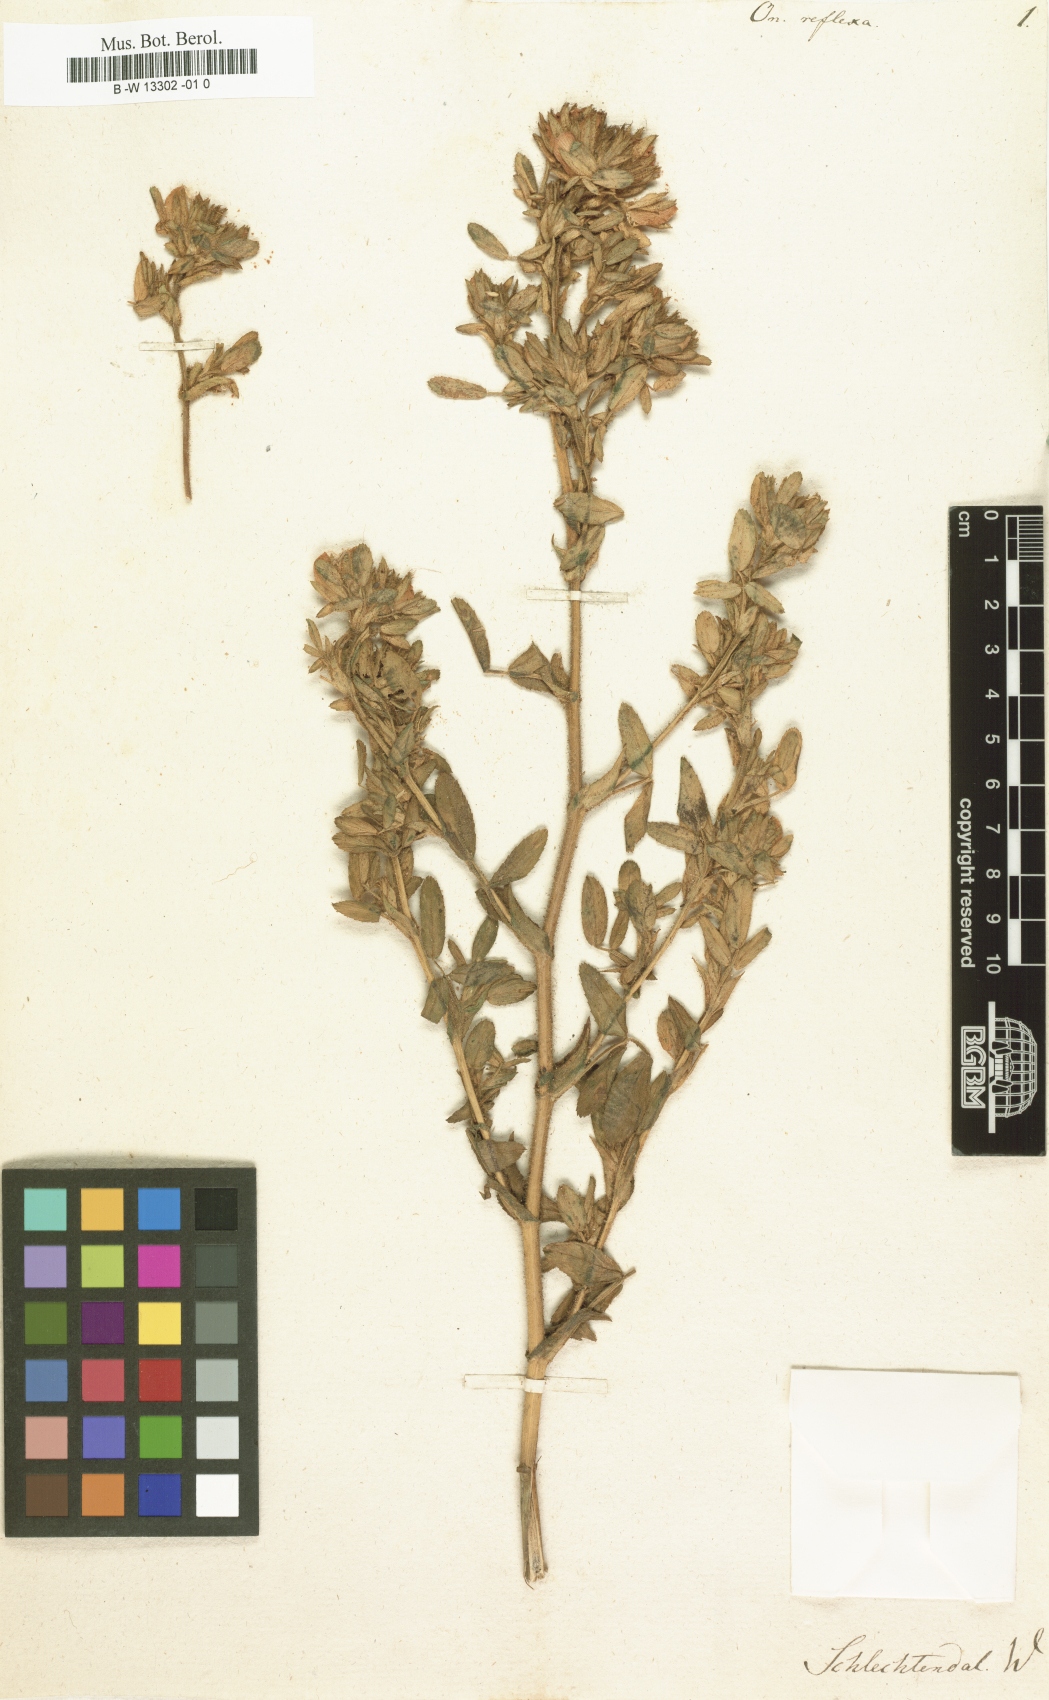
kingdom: Plantae
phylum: Tracheophyta
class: Magnoliopsida
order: Fabales
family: Fabaceae
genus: Ononis
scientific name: Ononis reflexa
